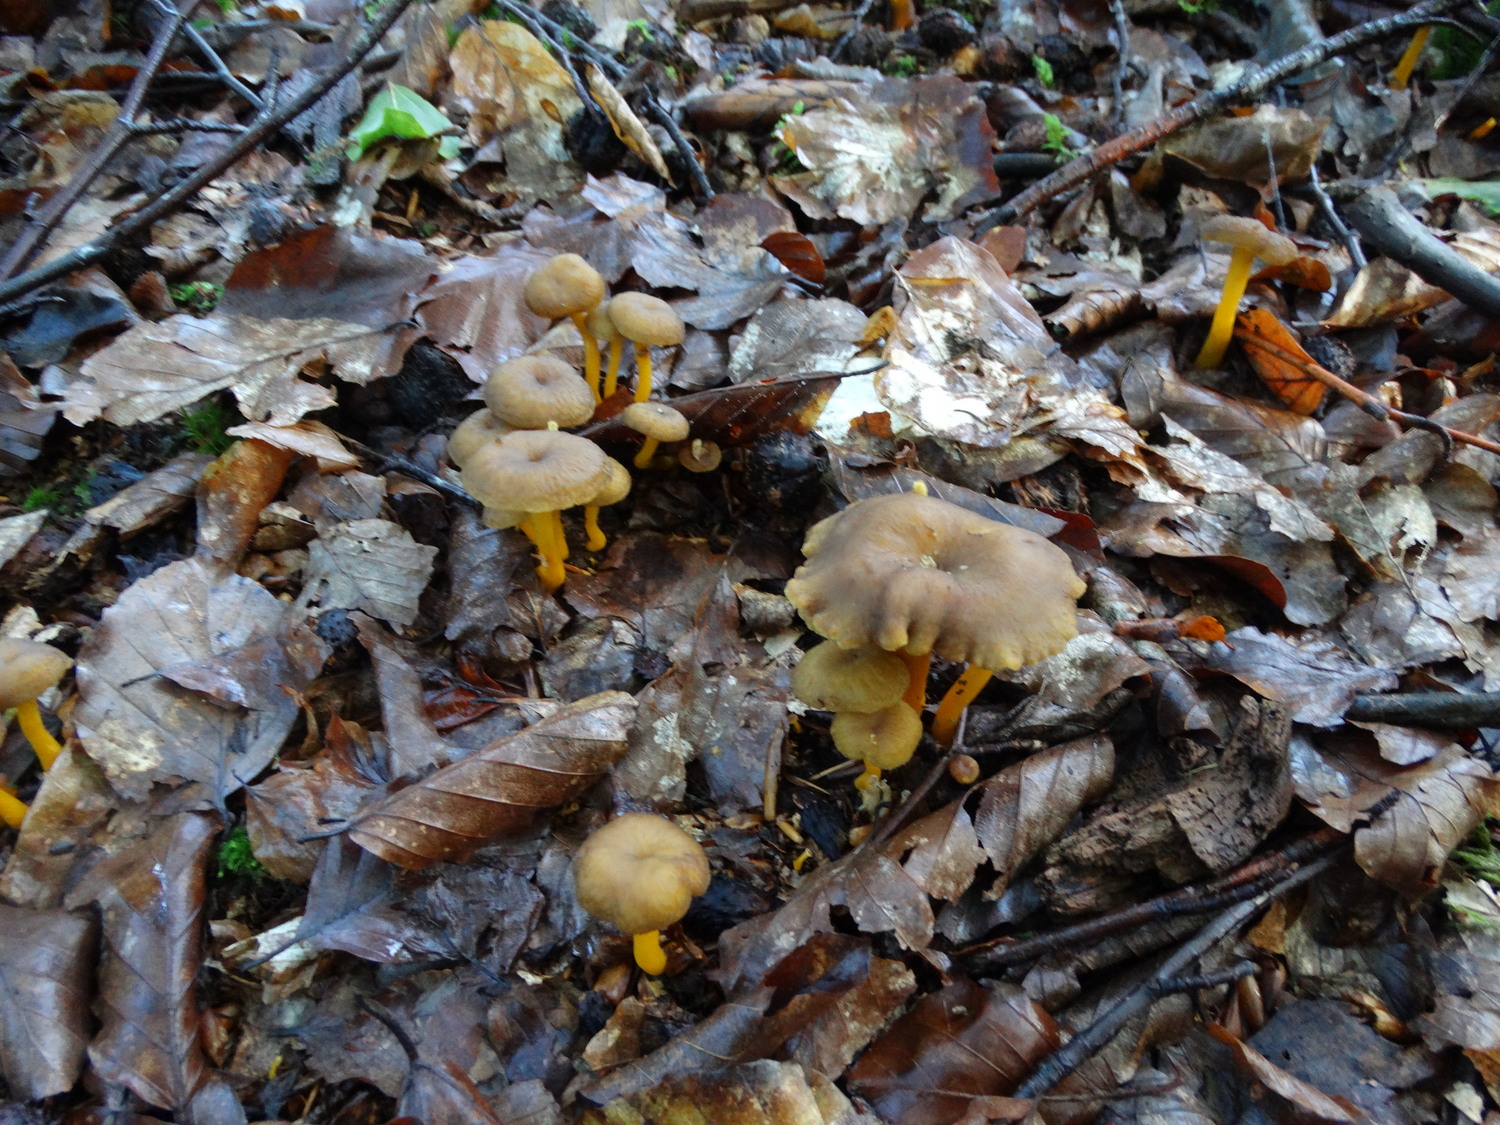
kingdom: Fungi
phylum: Basidiomycota
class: Agaricomycetes
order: Cantharellales
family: Hydnaceae
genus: Craterellus
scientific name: Craterellus tubaeformis
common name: tragt-kantarel
